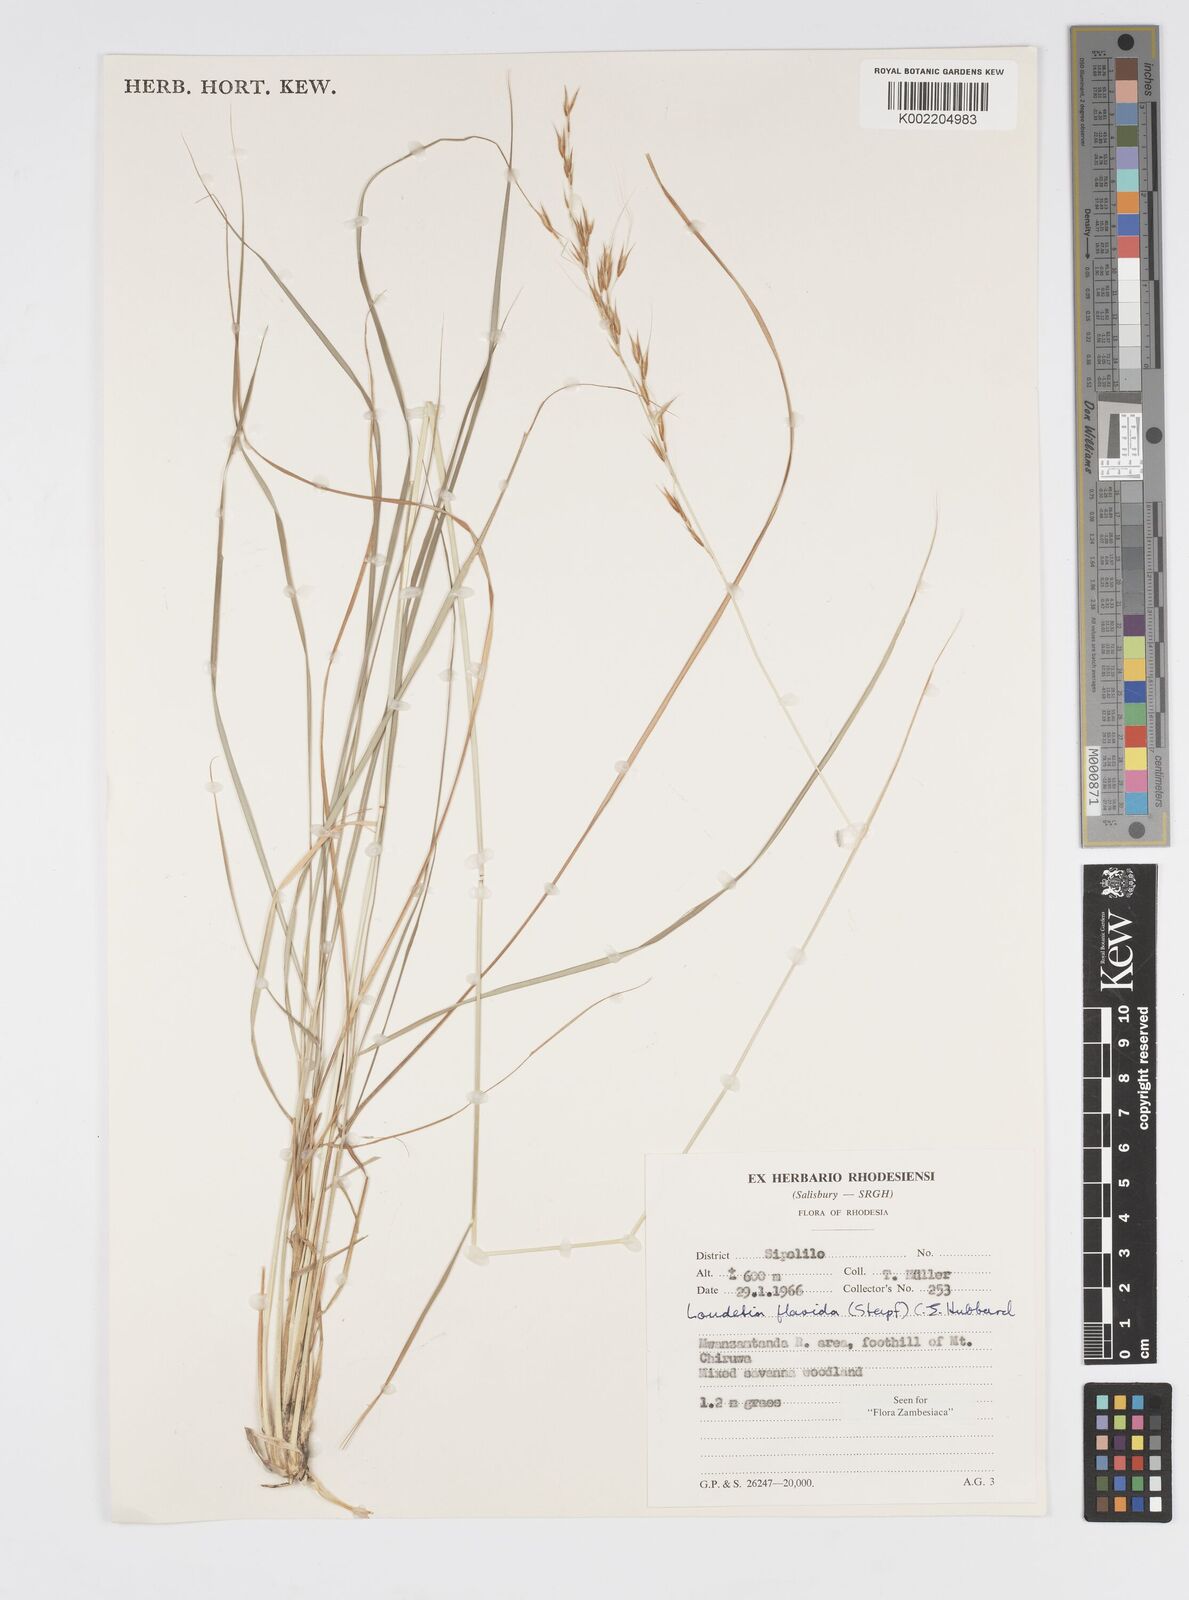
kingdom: Plantae
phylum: Tracheophyta
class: Liliopsida
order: Poales
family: Poaceae
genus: Loudetia
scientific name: Loudetia flavida
